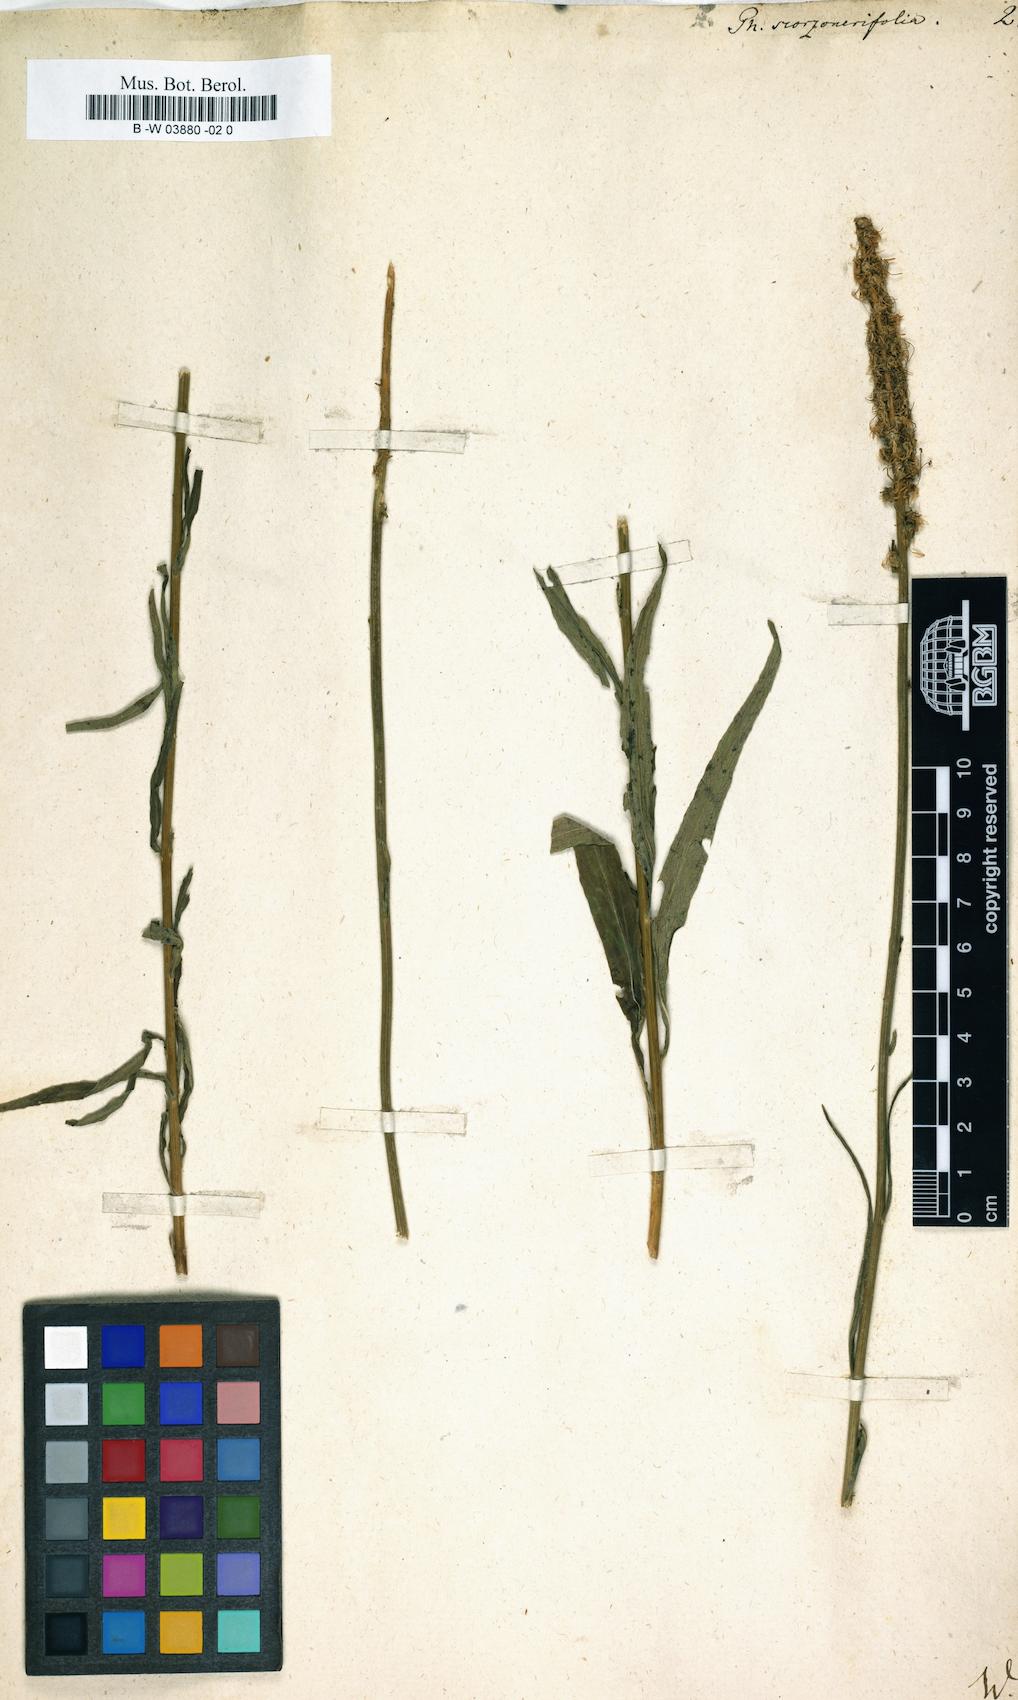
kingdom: Plantae
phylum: Tracheophyta
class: Magnoliopsida
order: Asterales
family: Campanulaceae
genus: Phyteuma
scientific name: Phyteuma scorzonerifolium
